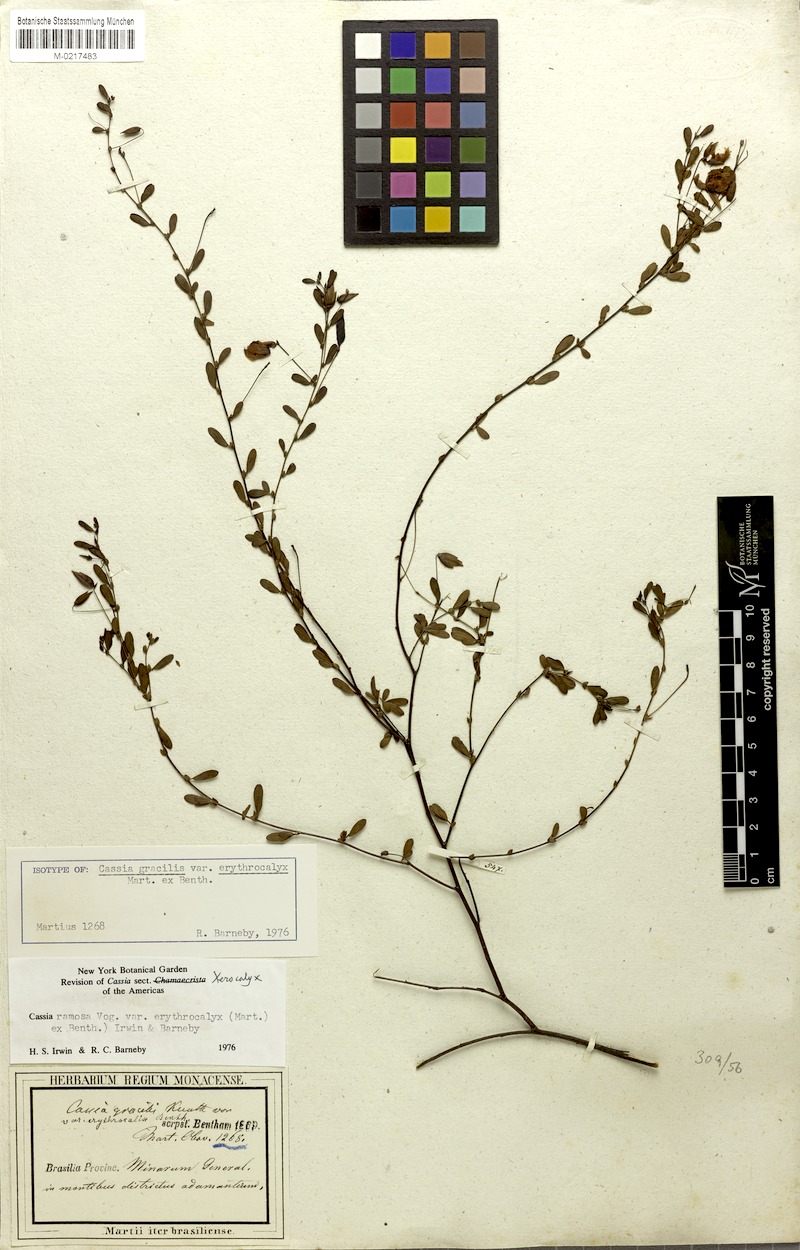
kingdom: Plantae
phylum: Tracheophyta
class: Magnoliopsida
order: Fabales
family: Fabaceae
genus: Chamaecrista
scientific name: Chamaecrista ramosa
